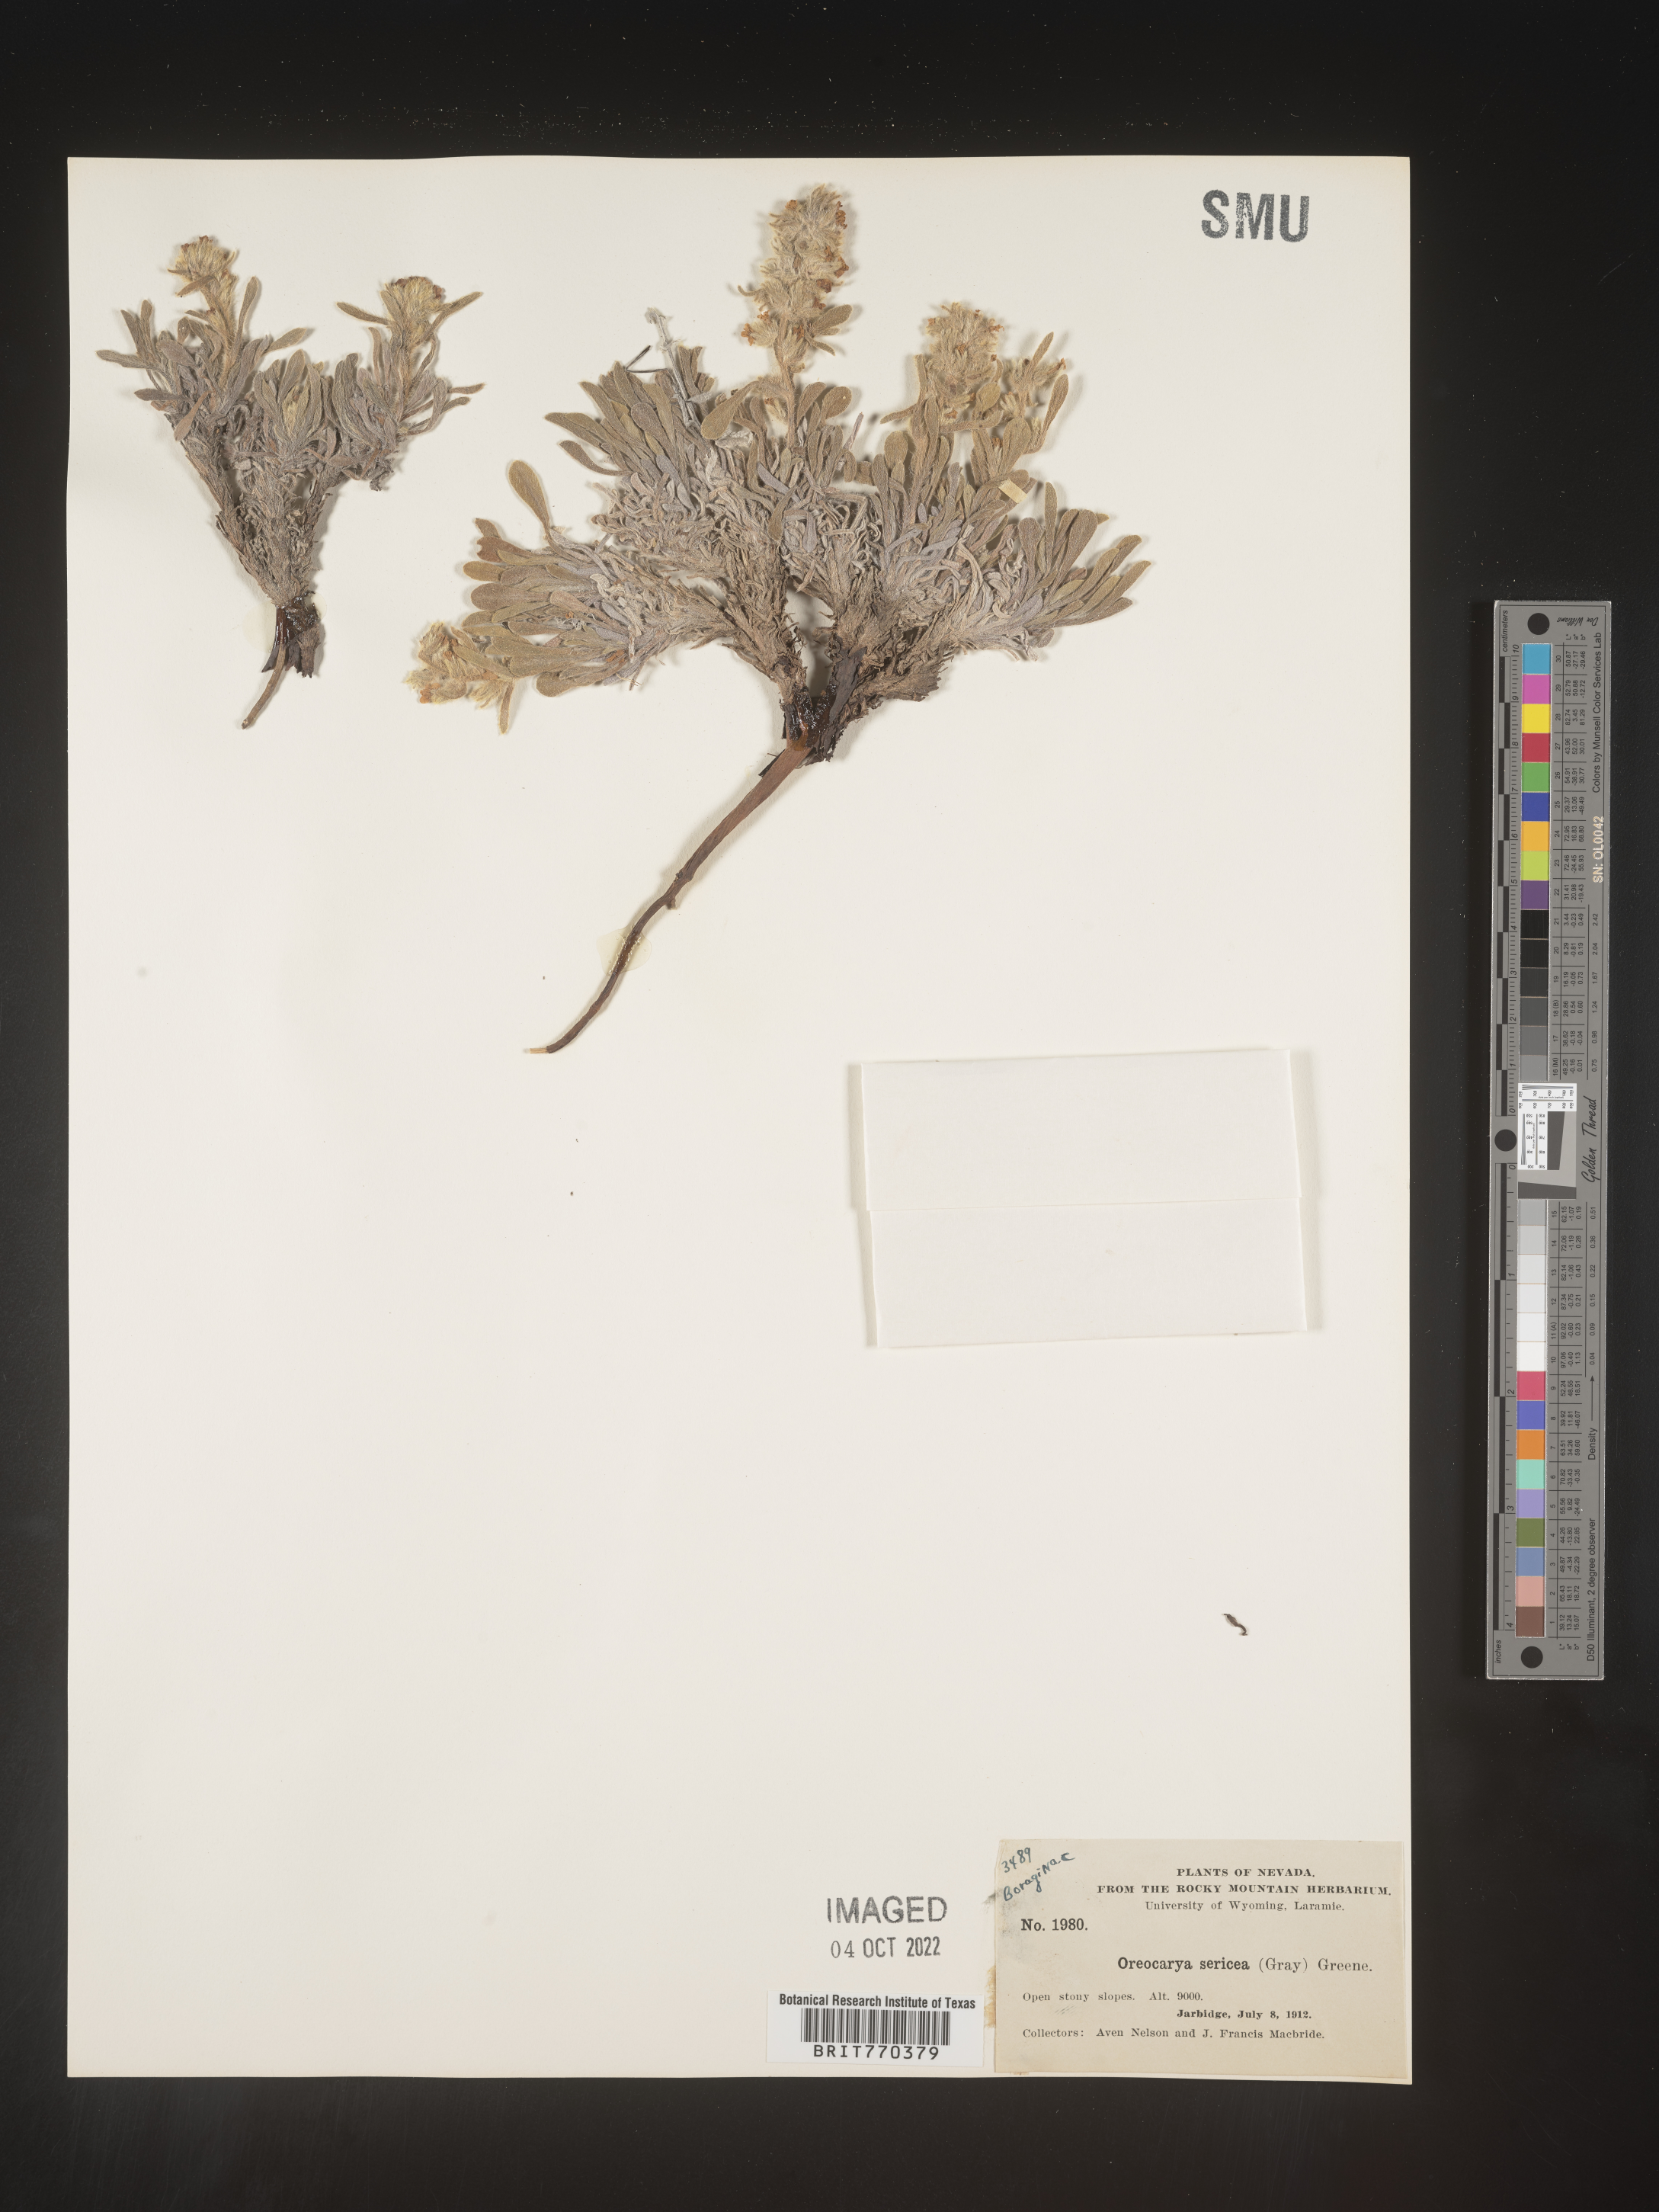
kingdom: Plantae
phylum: Tracheophyta
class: Magnoliopsida
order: Boraginales
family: Boraginaceae
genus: Oreocarya
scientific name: Oreocarya
